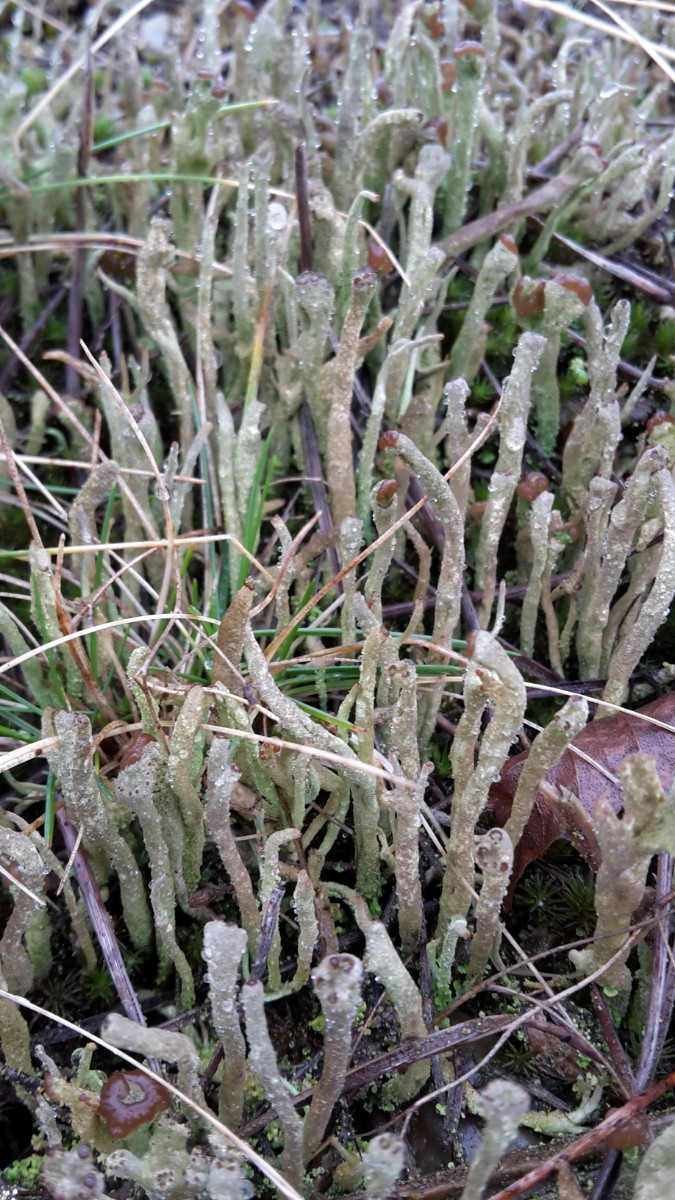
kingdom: Fungi
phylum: Ascomycota
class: Lecanoromycetes
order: Lecanorales
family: Cladoniaceae
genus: Cladonia
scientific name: Cladonia ochrochlora
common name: stød-bægerlav
